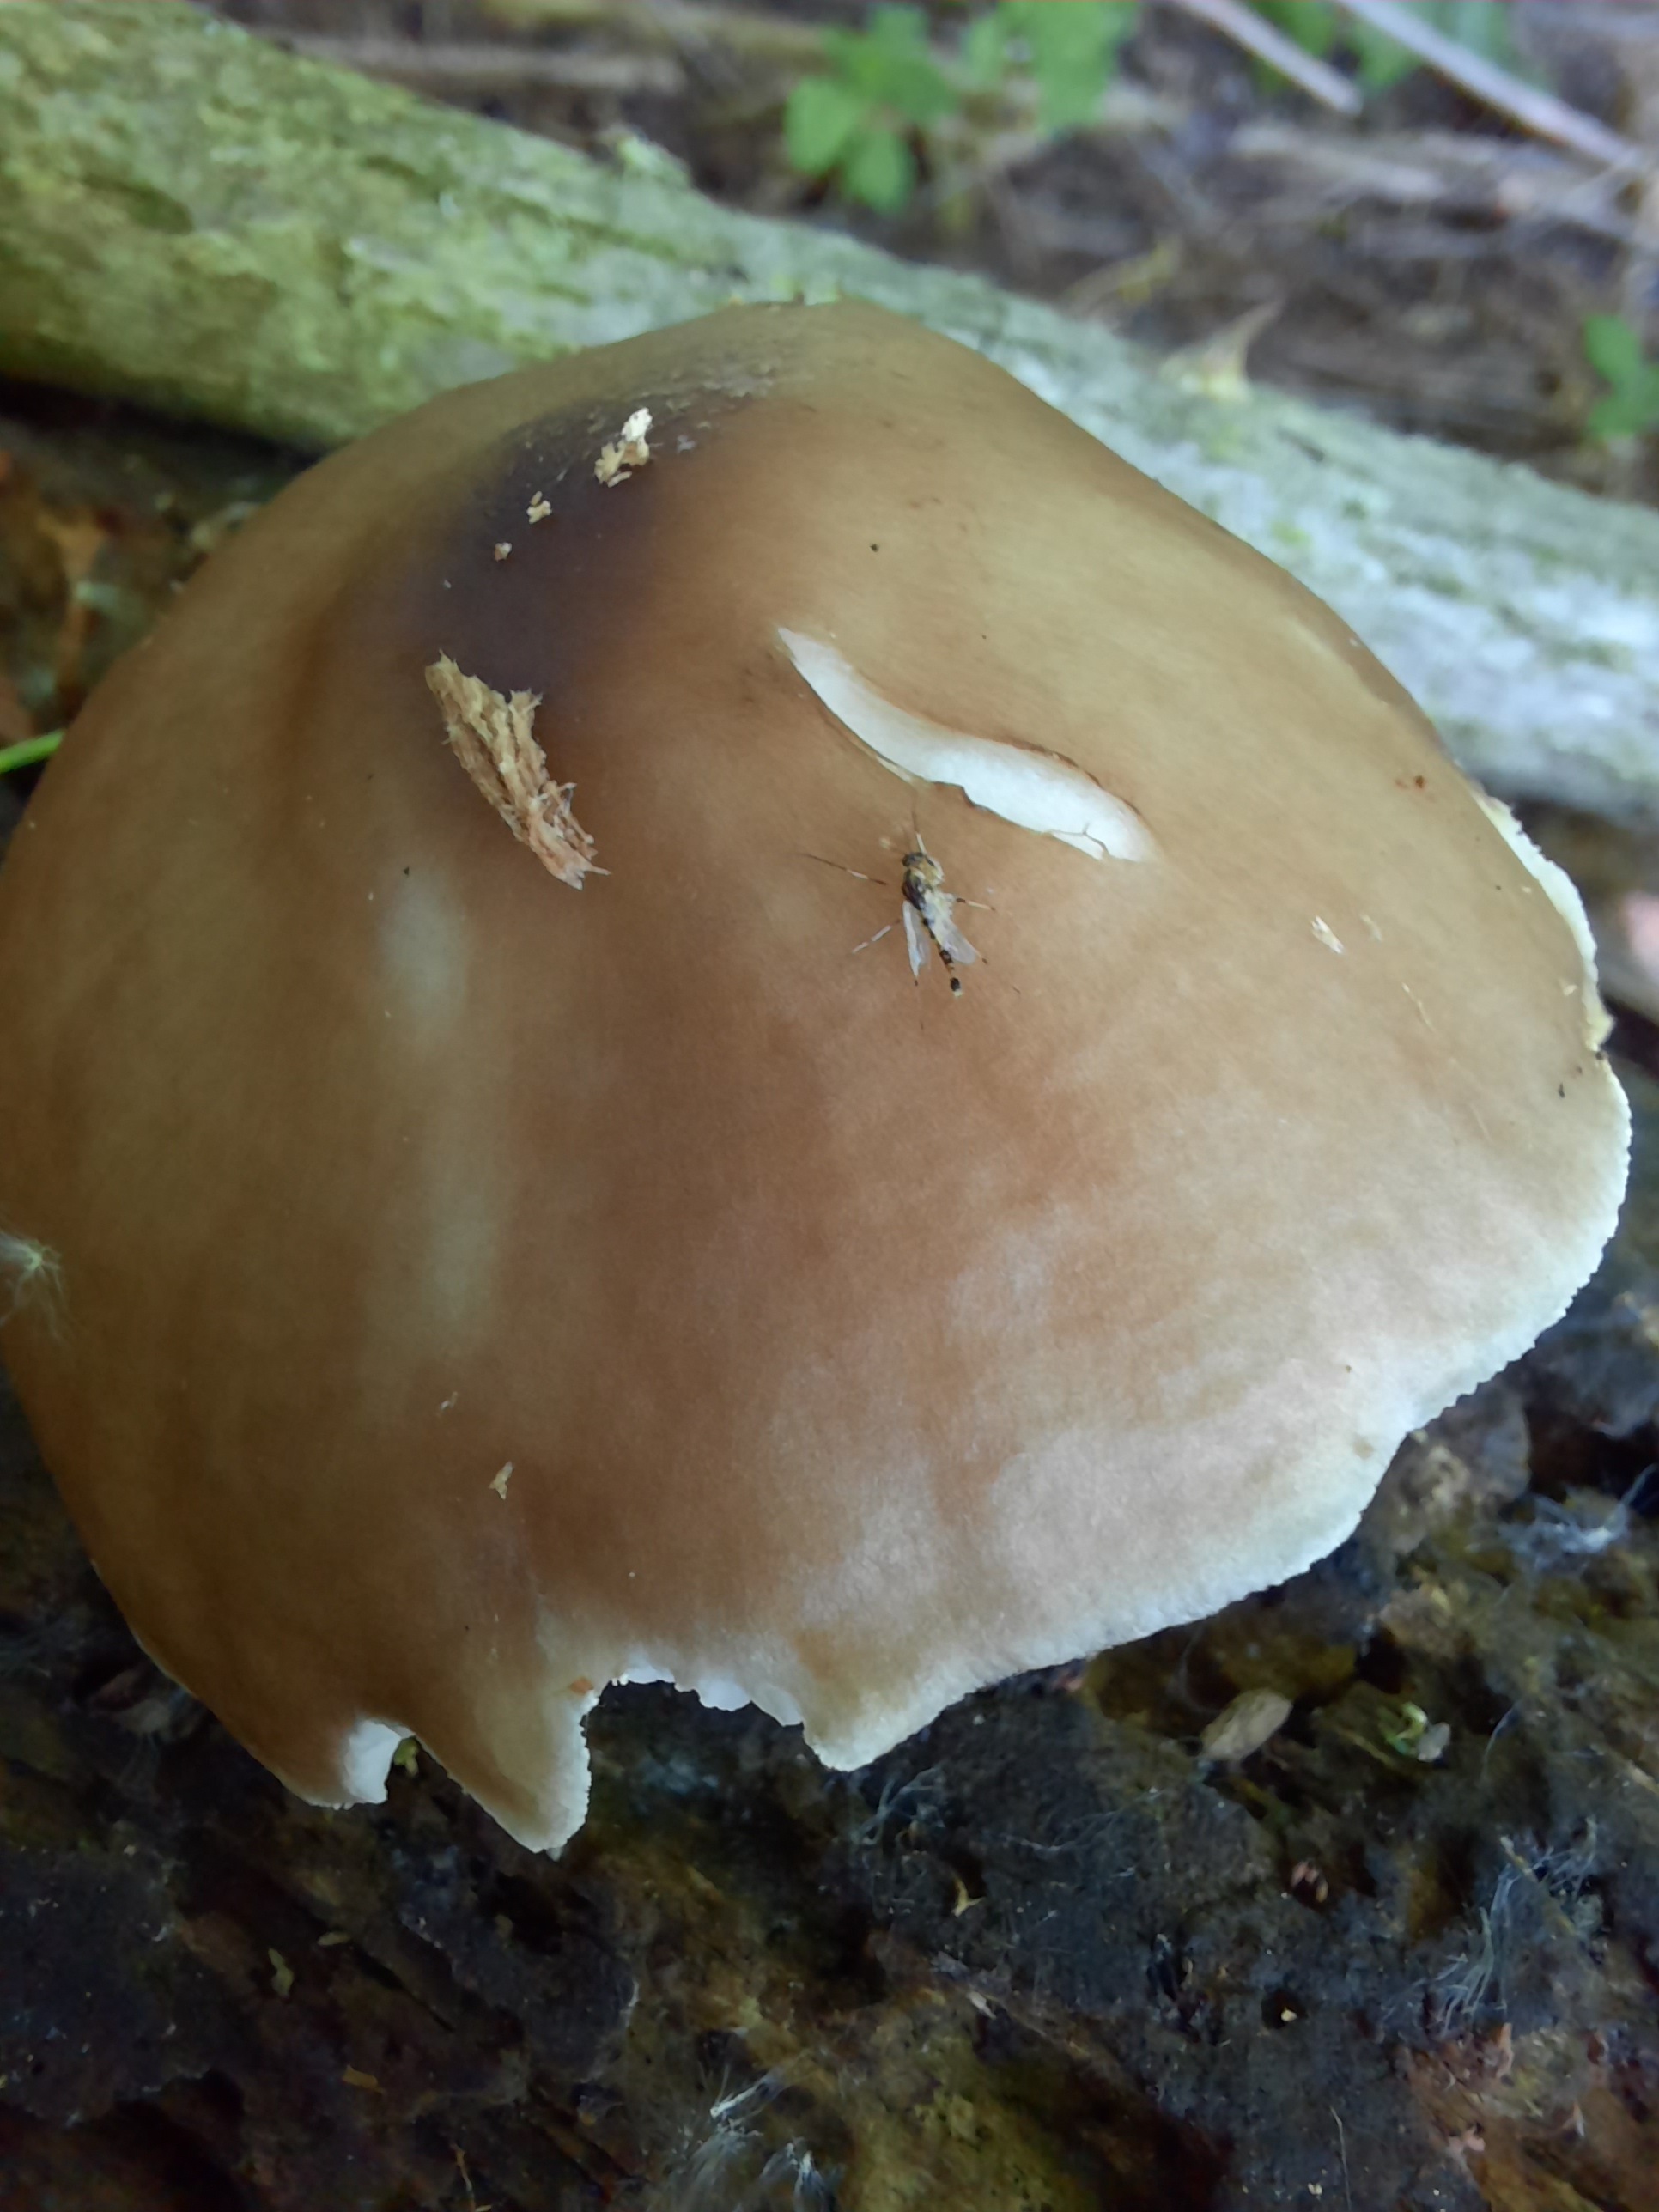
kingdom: Fungi
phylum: Basidiomycota
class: Agaricomycetes
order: Agaricales
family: Pluteaceae
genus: Pluteus
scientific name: Pluteus cervinus
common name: sodfarvet skærmhat
